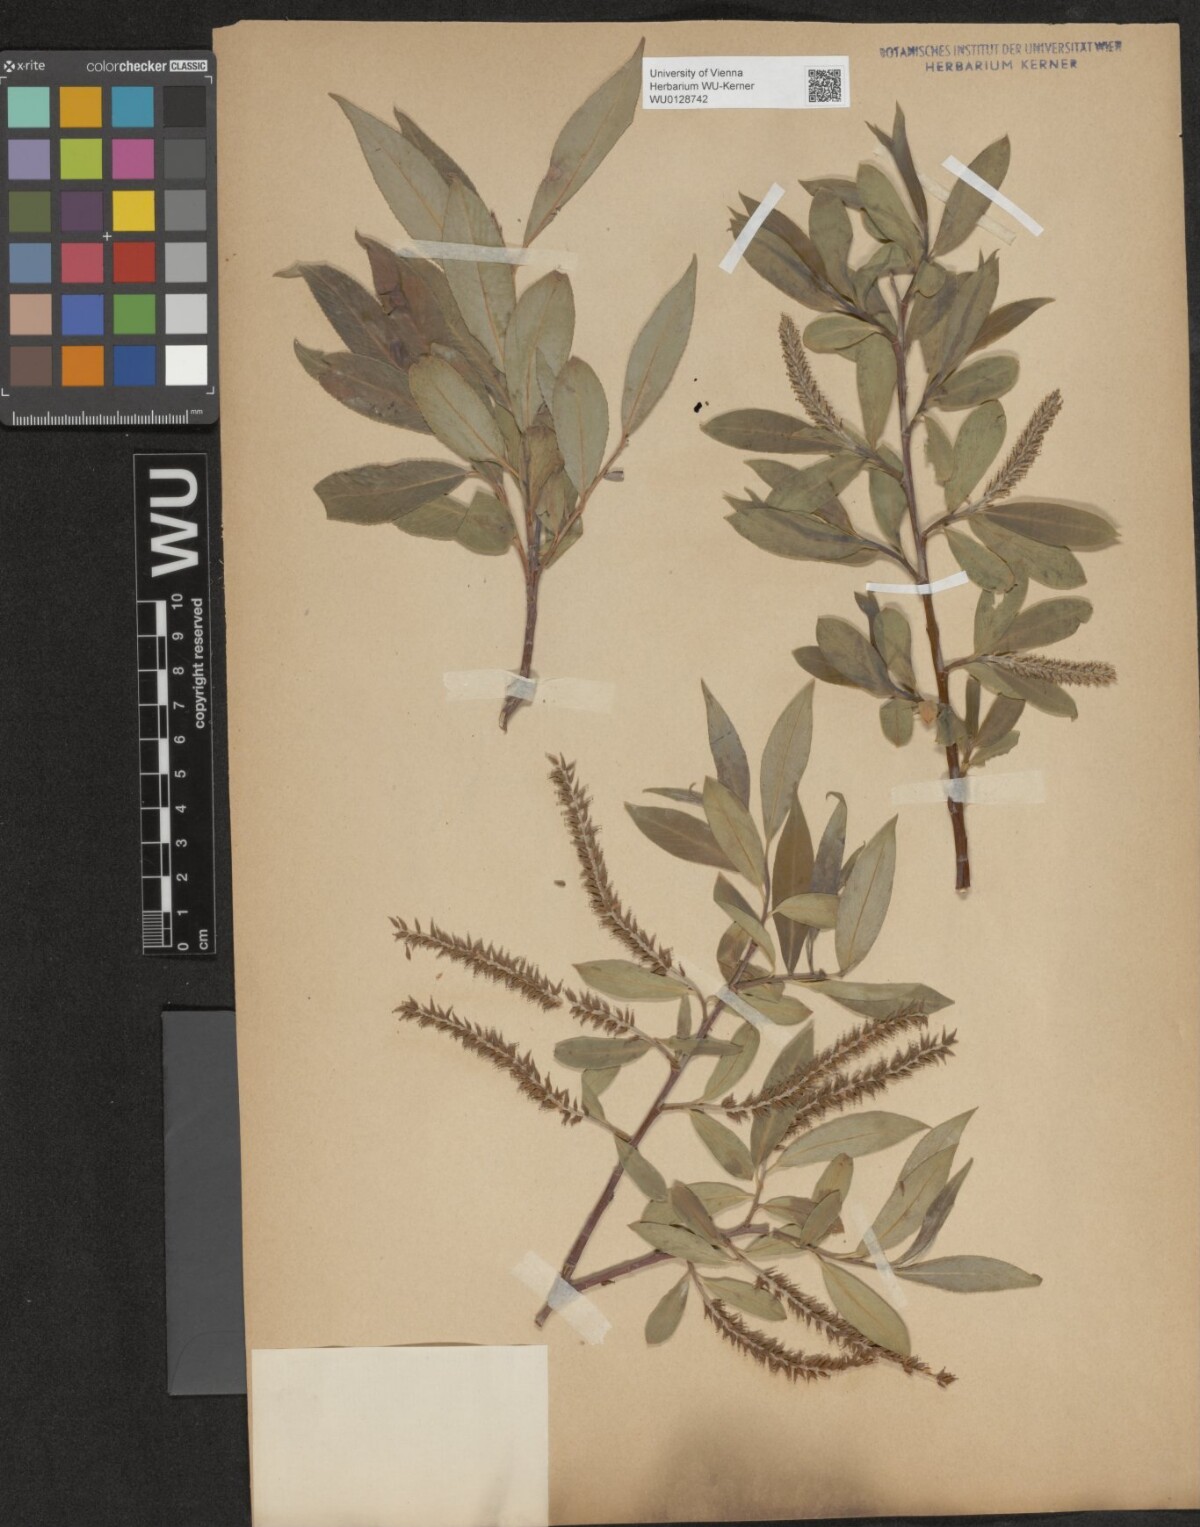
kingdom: Plantae
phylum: Tracheophyta
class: Magnoliopsida
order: Malpighiales
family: Salicaceae
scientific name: Salicaceae
